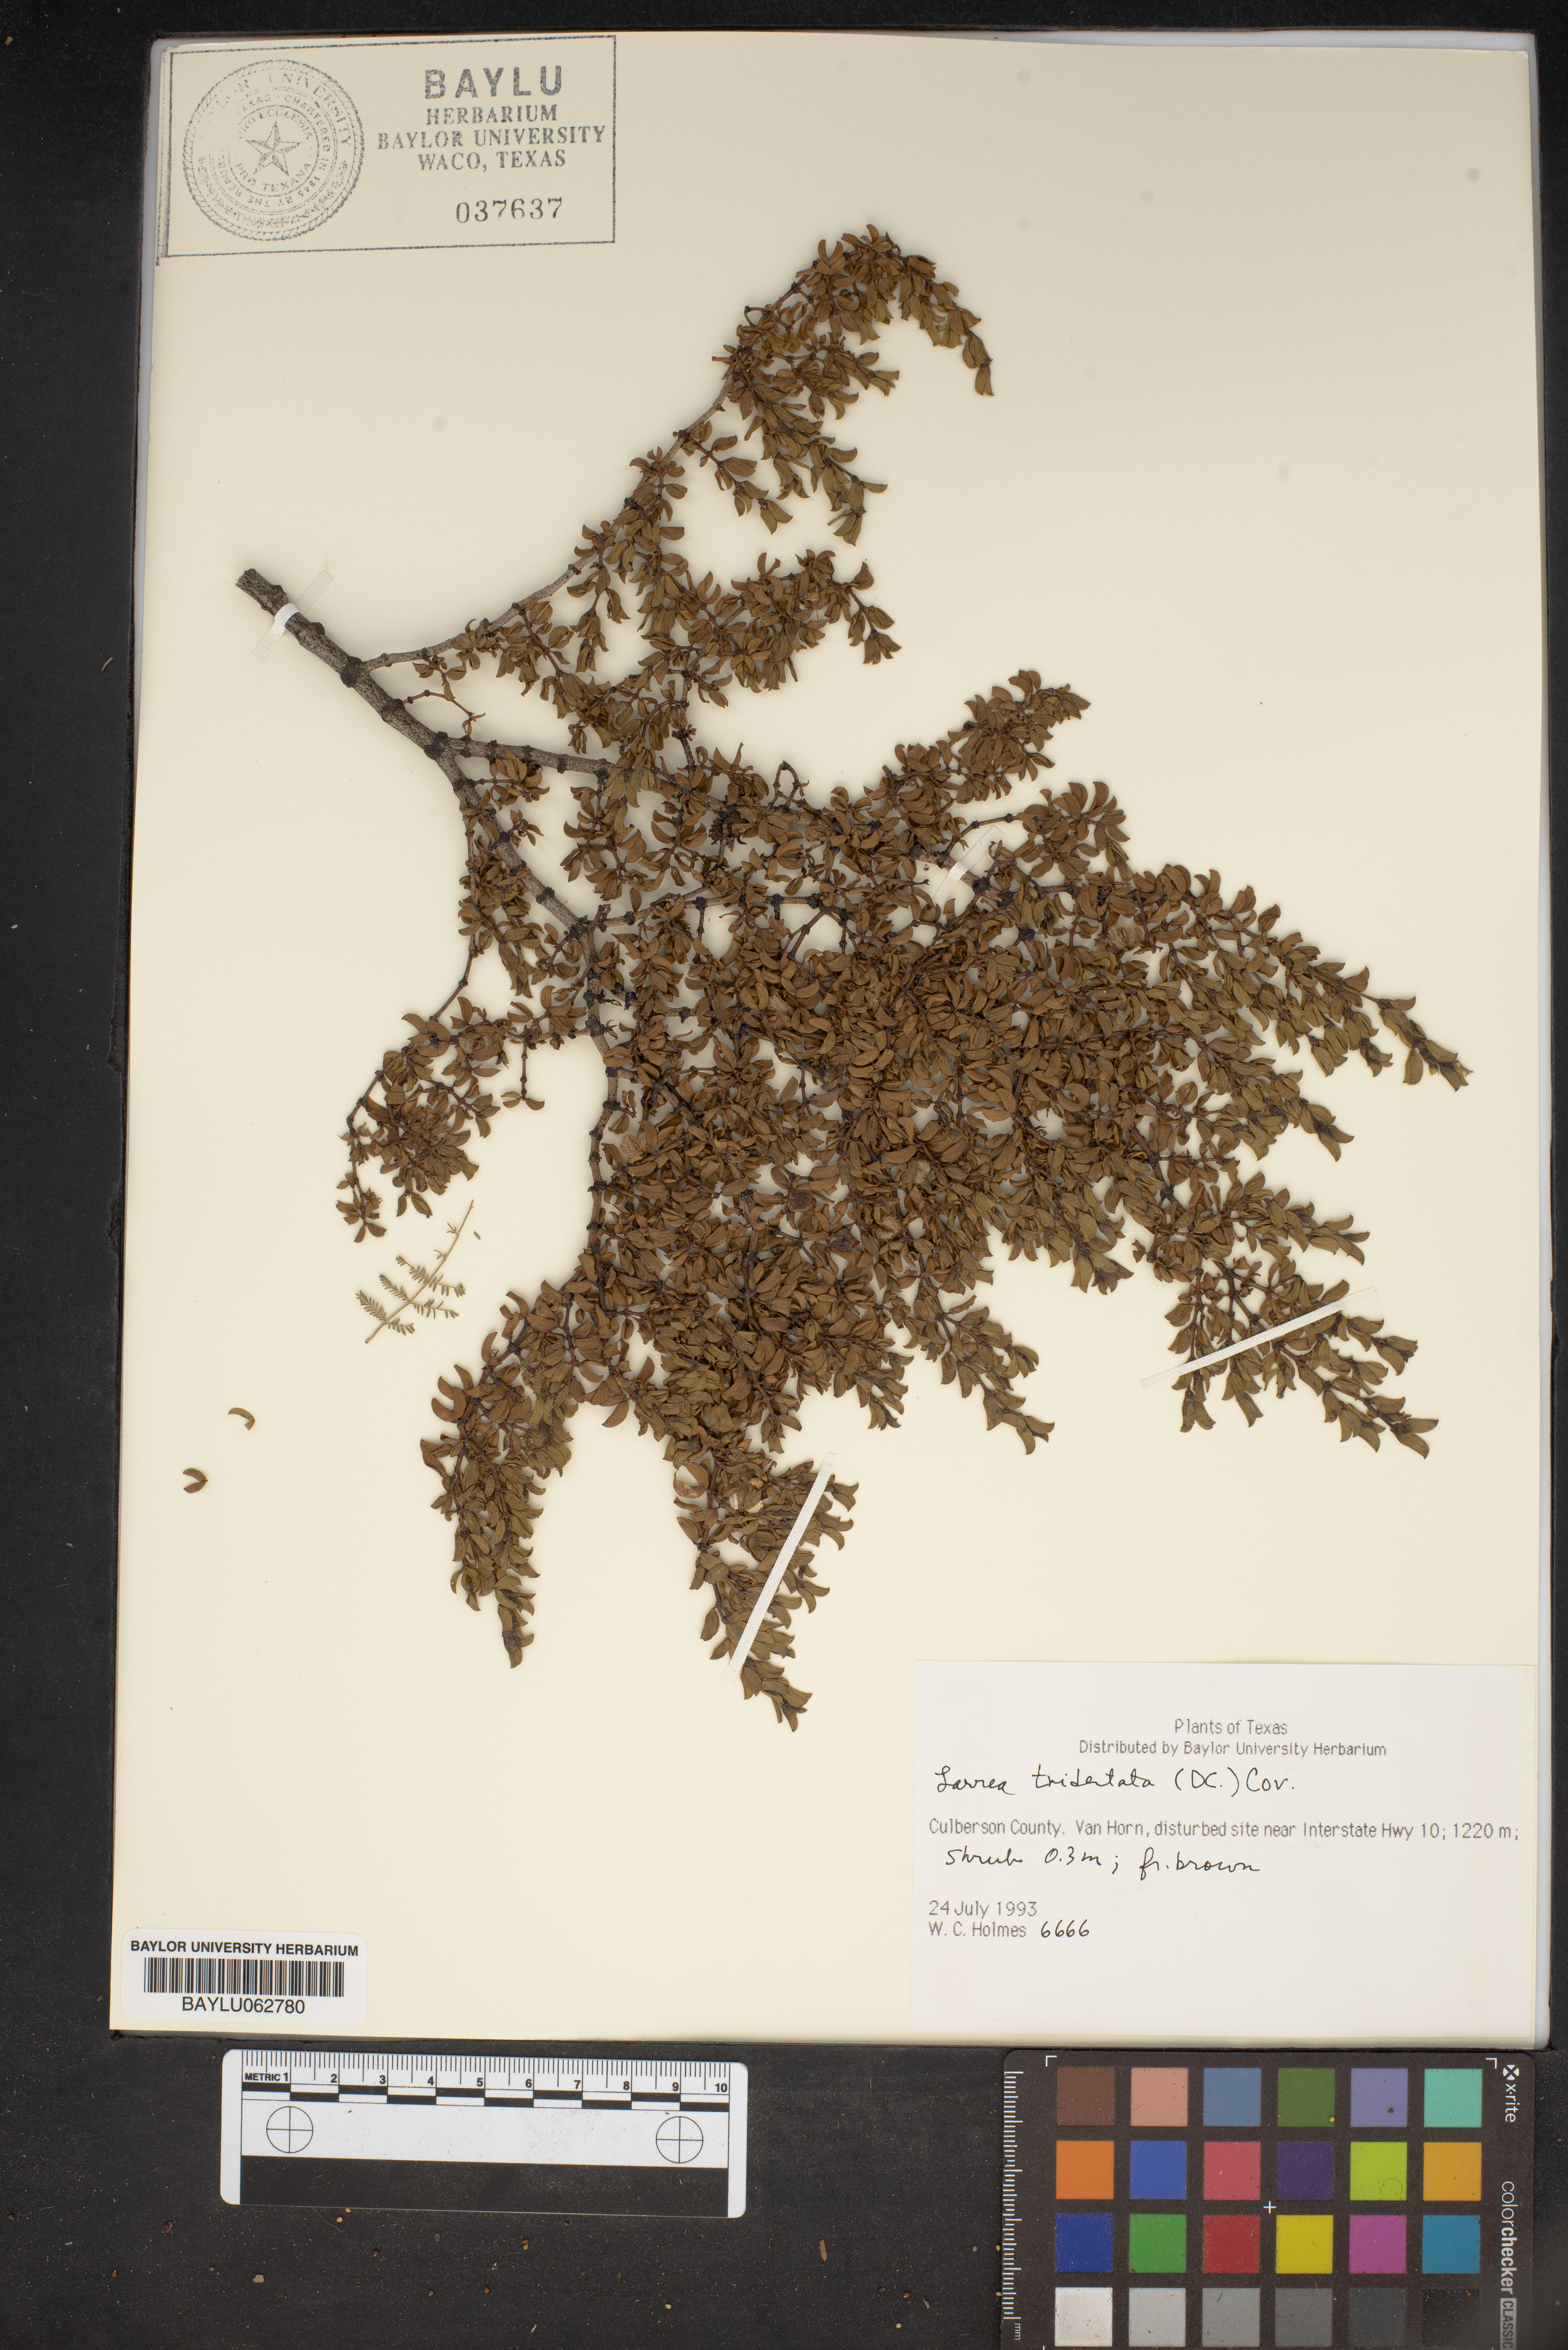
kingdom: Plantae
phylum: Tracheophyta
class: Magnoliopsida
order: Zygophyllales
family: Zygophyllaceae
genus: Larrea
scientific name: Larrea tridentata
